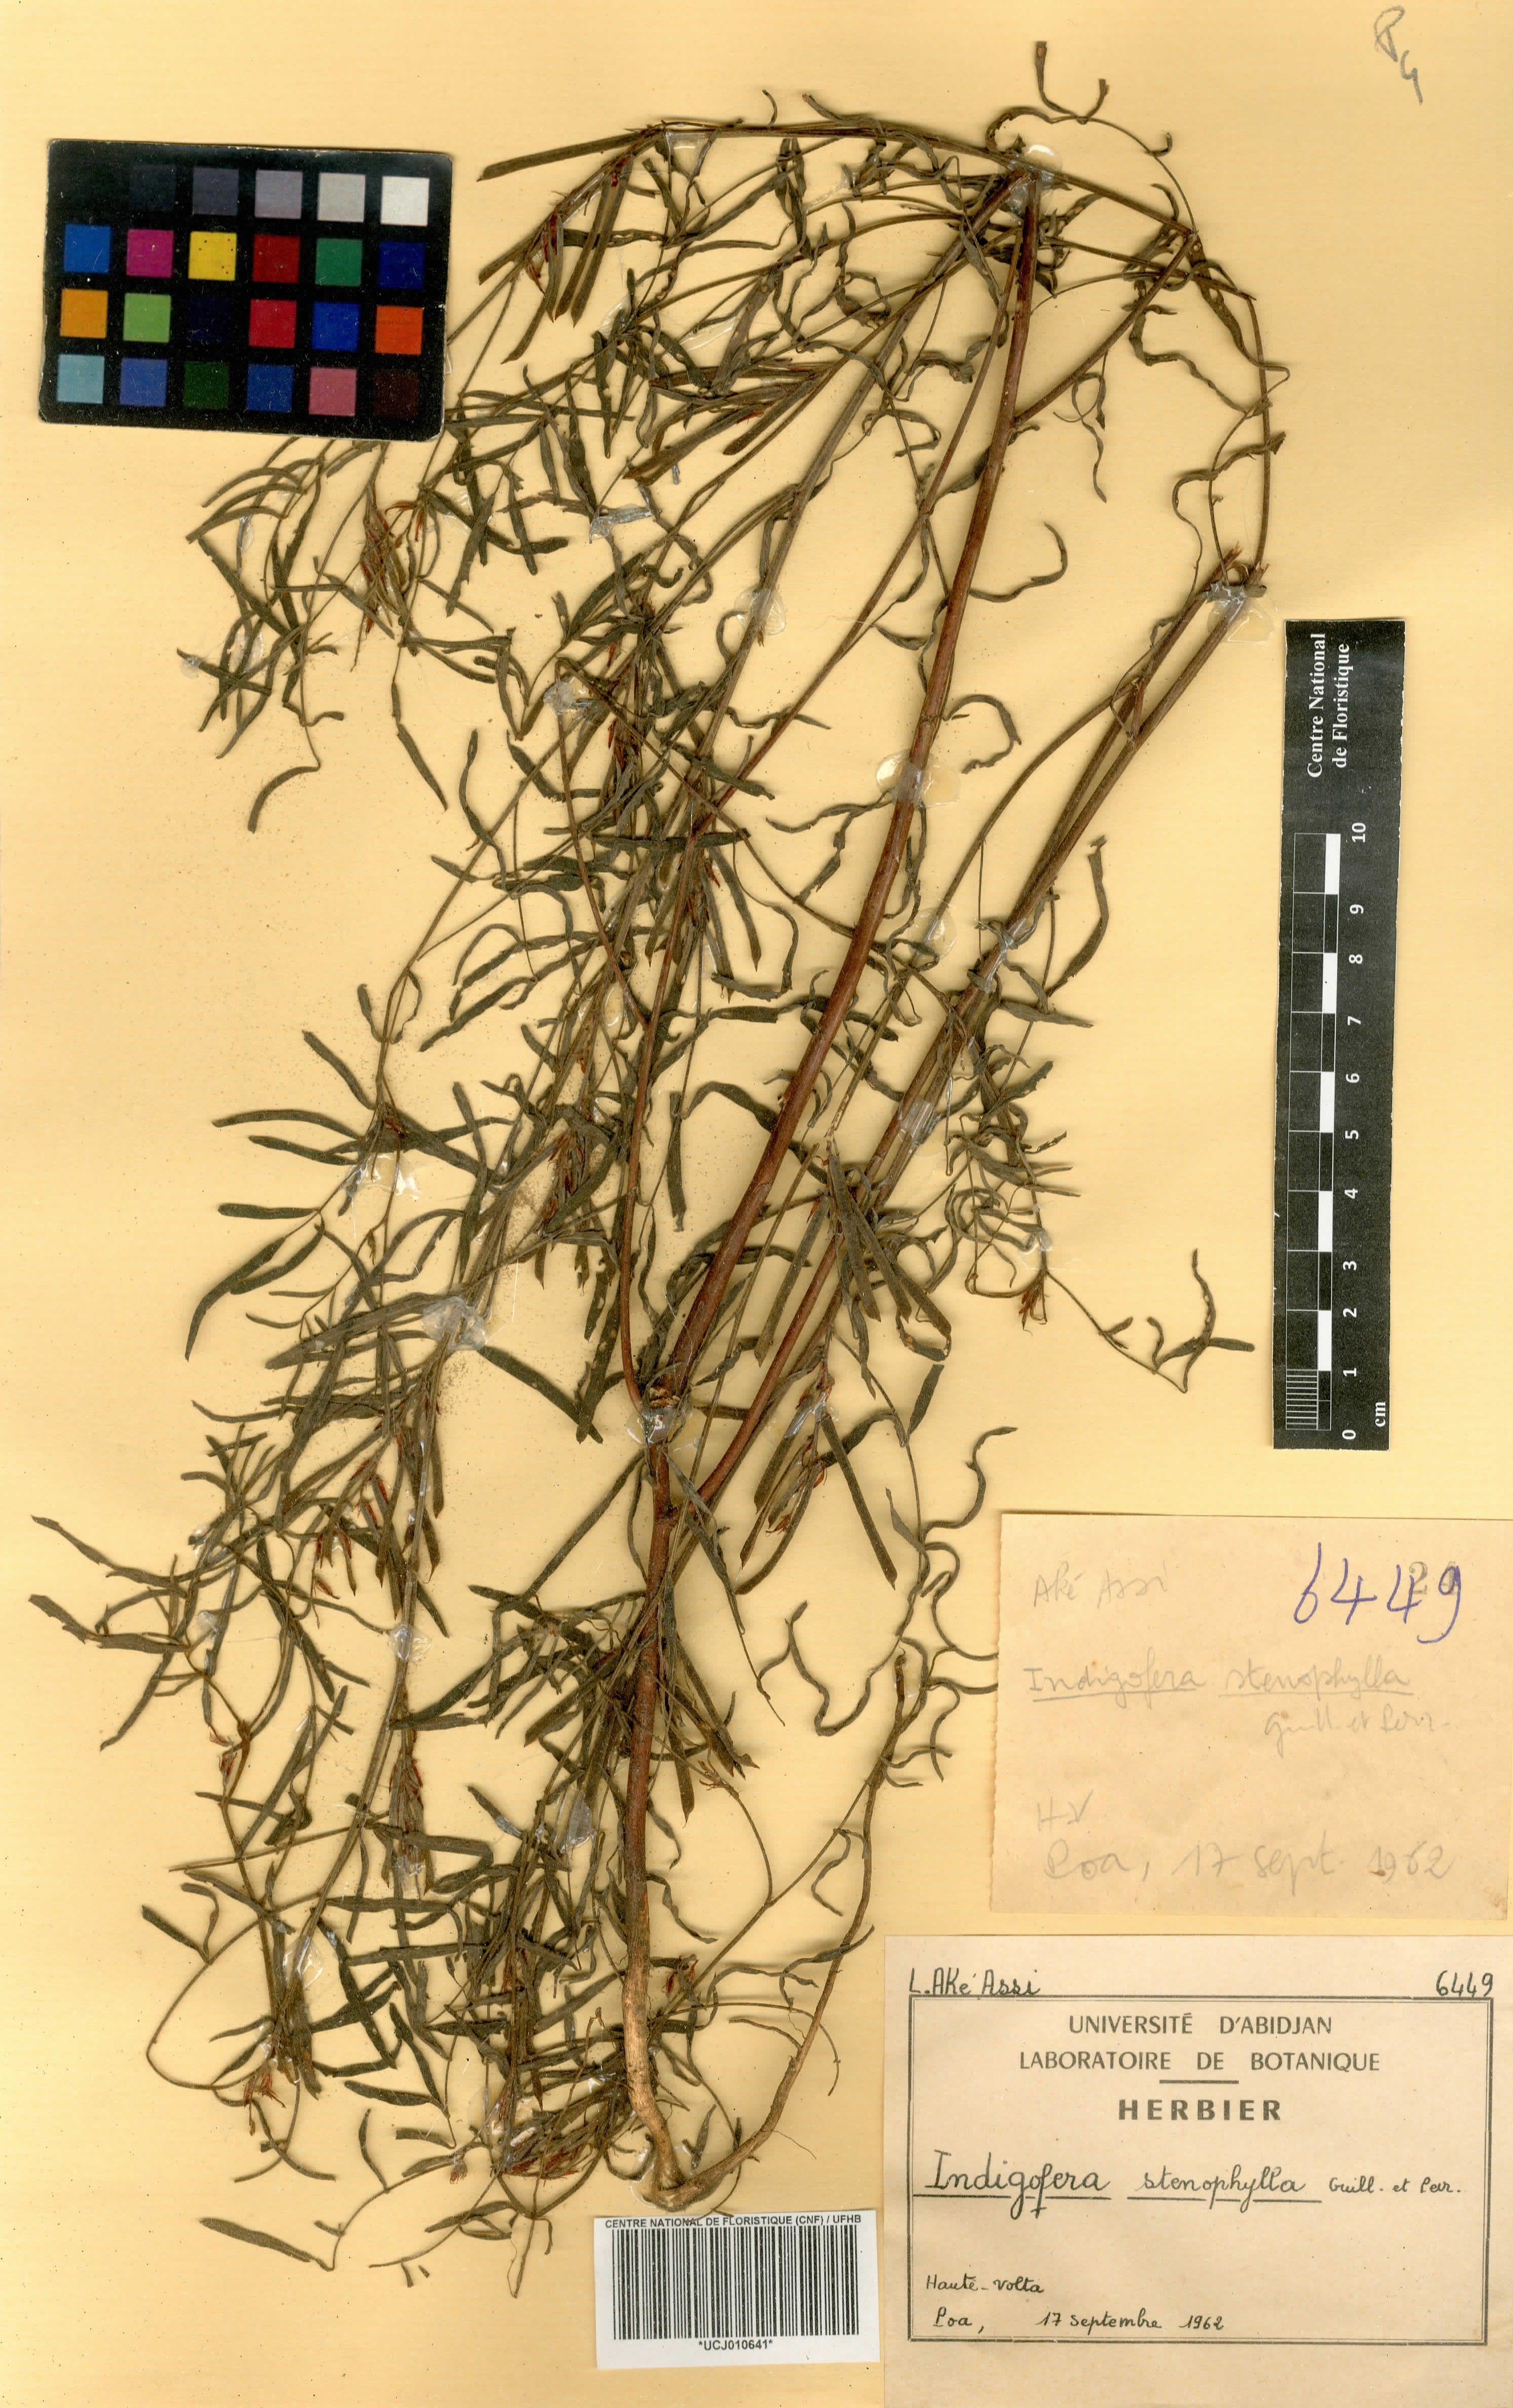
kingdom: Plantae
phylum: Tracheophyta
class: Magnoliopsida
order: Fabales
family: Fabaceae
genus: Indigofera
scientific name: Indigofera suffruticosa
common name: Anil de pasto
